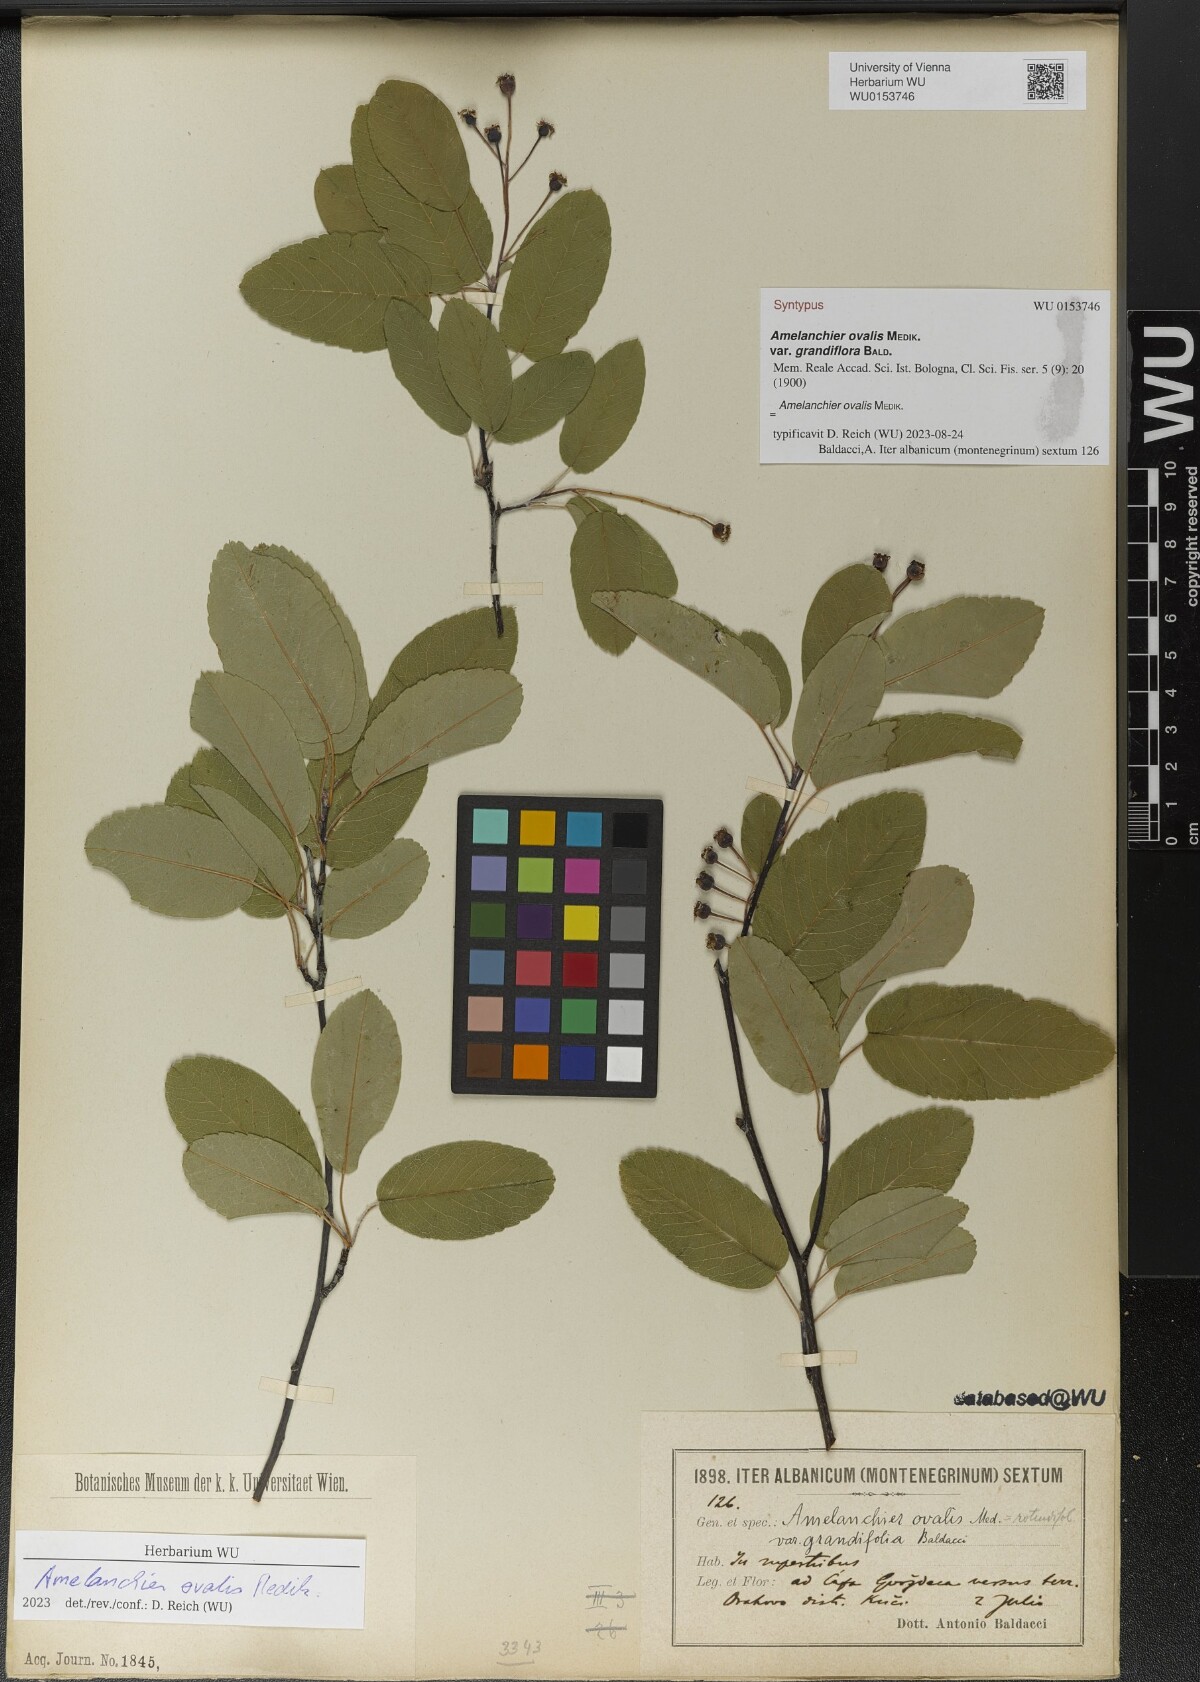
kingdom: Plantae
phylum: Tracheophyta
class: Magnoliopsida
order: Rosales
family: Rosaceae
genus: Amelanchier
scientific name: Amelanchier ovalis
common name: Serviceberry
